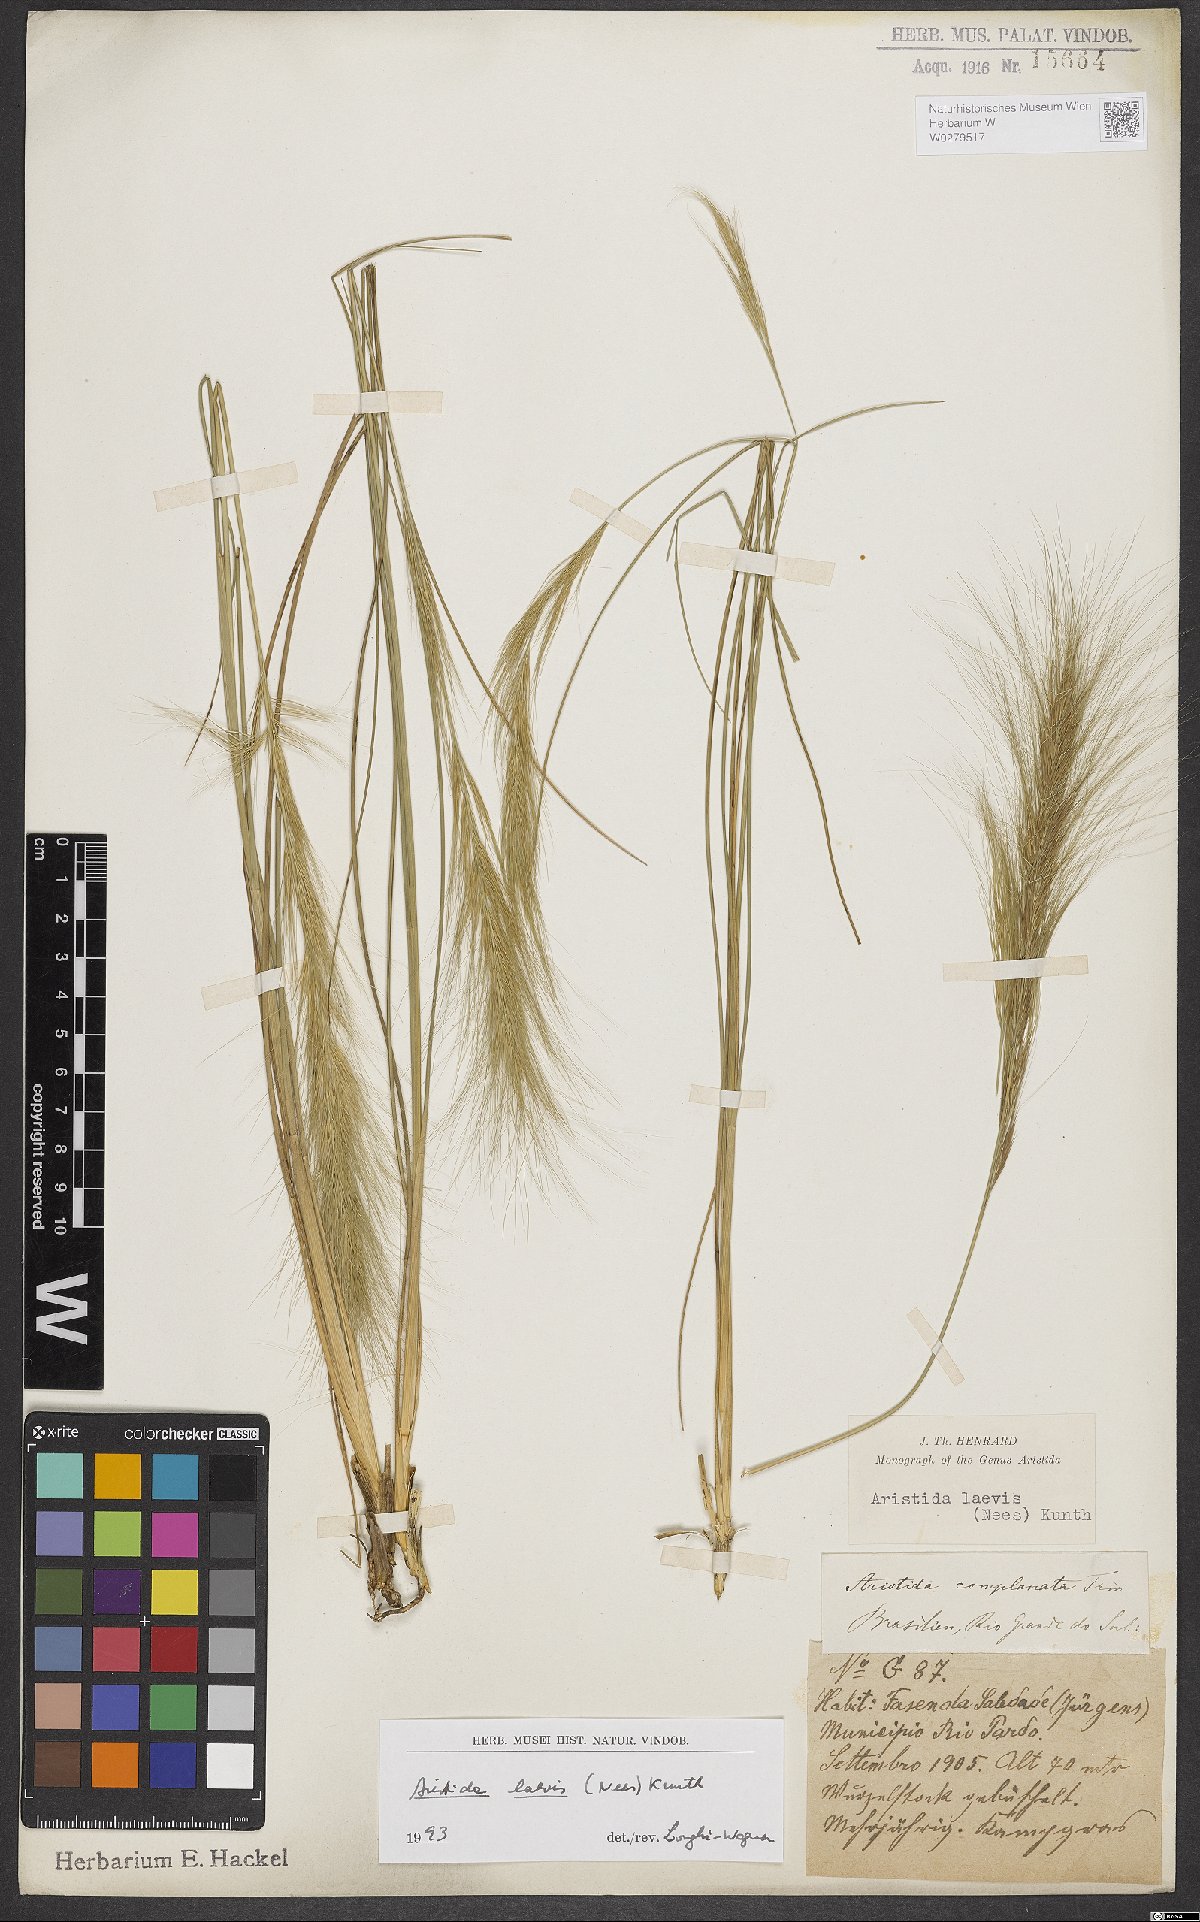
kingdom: Plantae
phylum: Tracheophyta
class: Liliopsida
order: Poales
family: Poaceae
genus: Aristida
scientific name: Aristida pallens
